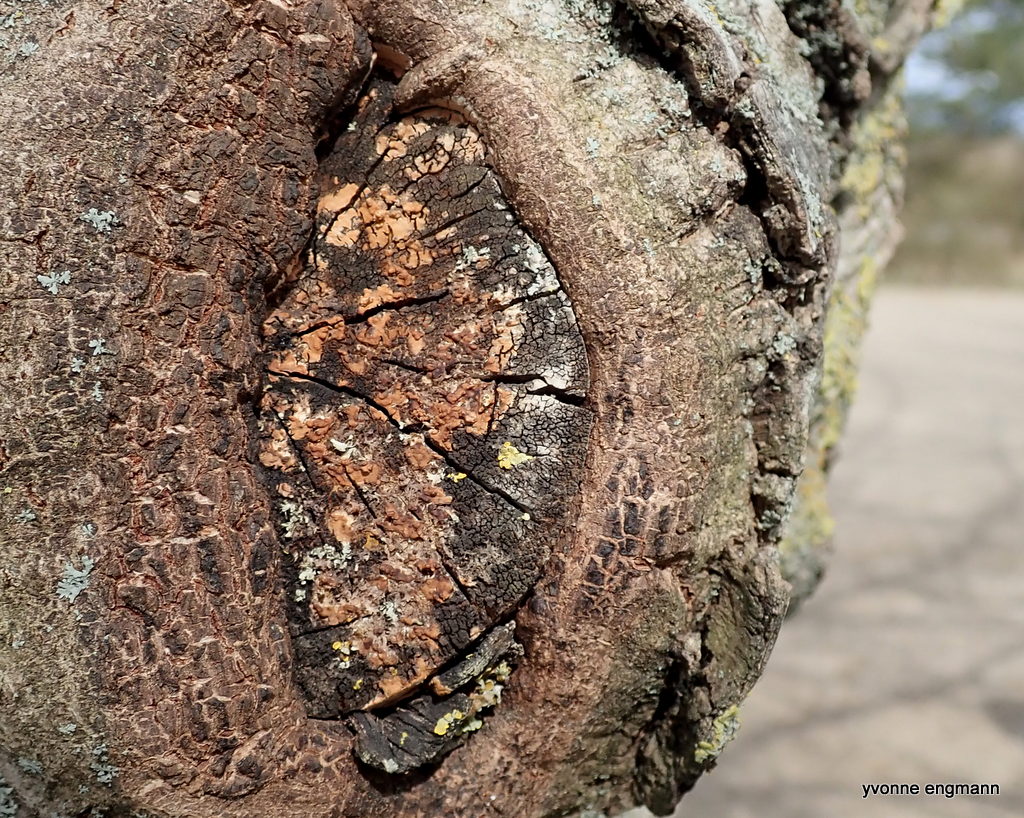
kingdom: Fungi
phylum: Basidiomycota
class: Agaricomycetes
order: Russulales
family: Peniophoraceae
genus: Peniophora
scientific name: Peniophora incarnata
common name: laksefarvet voksskind
